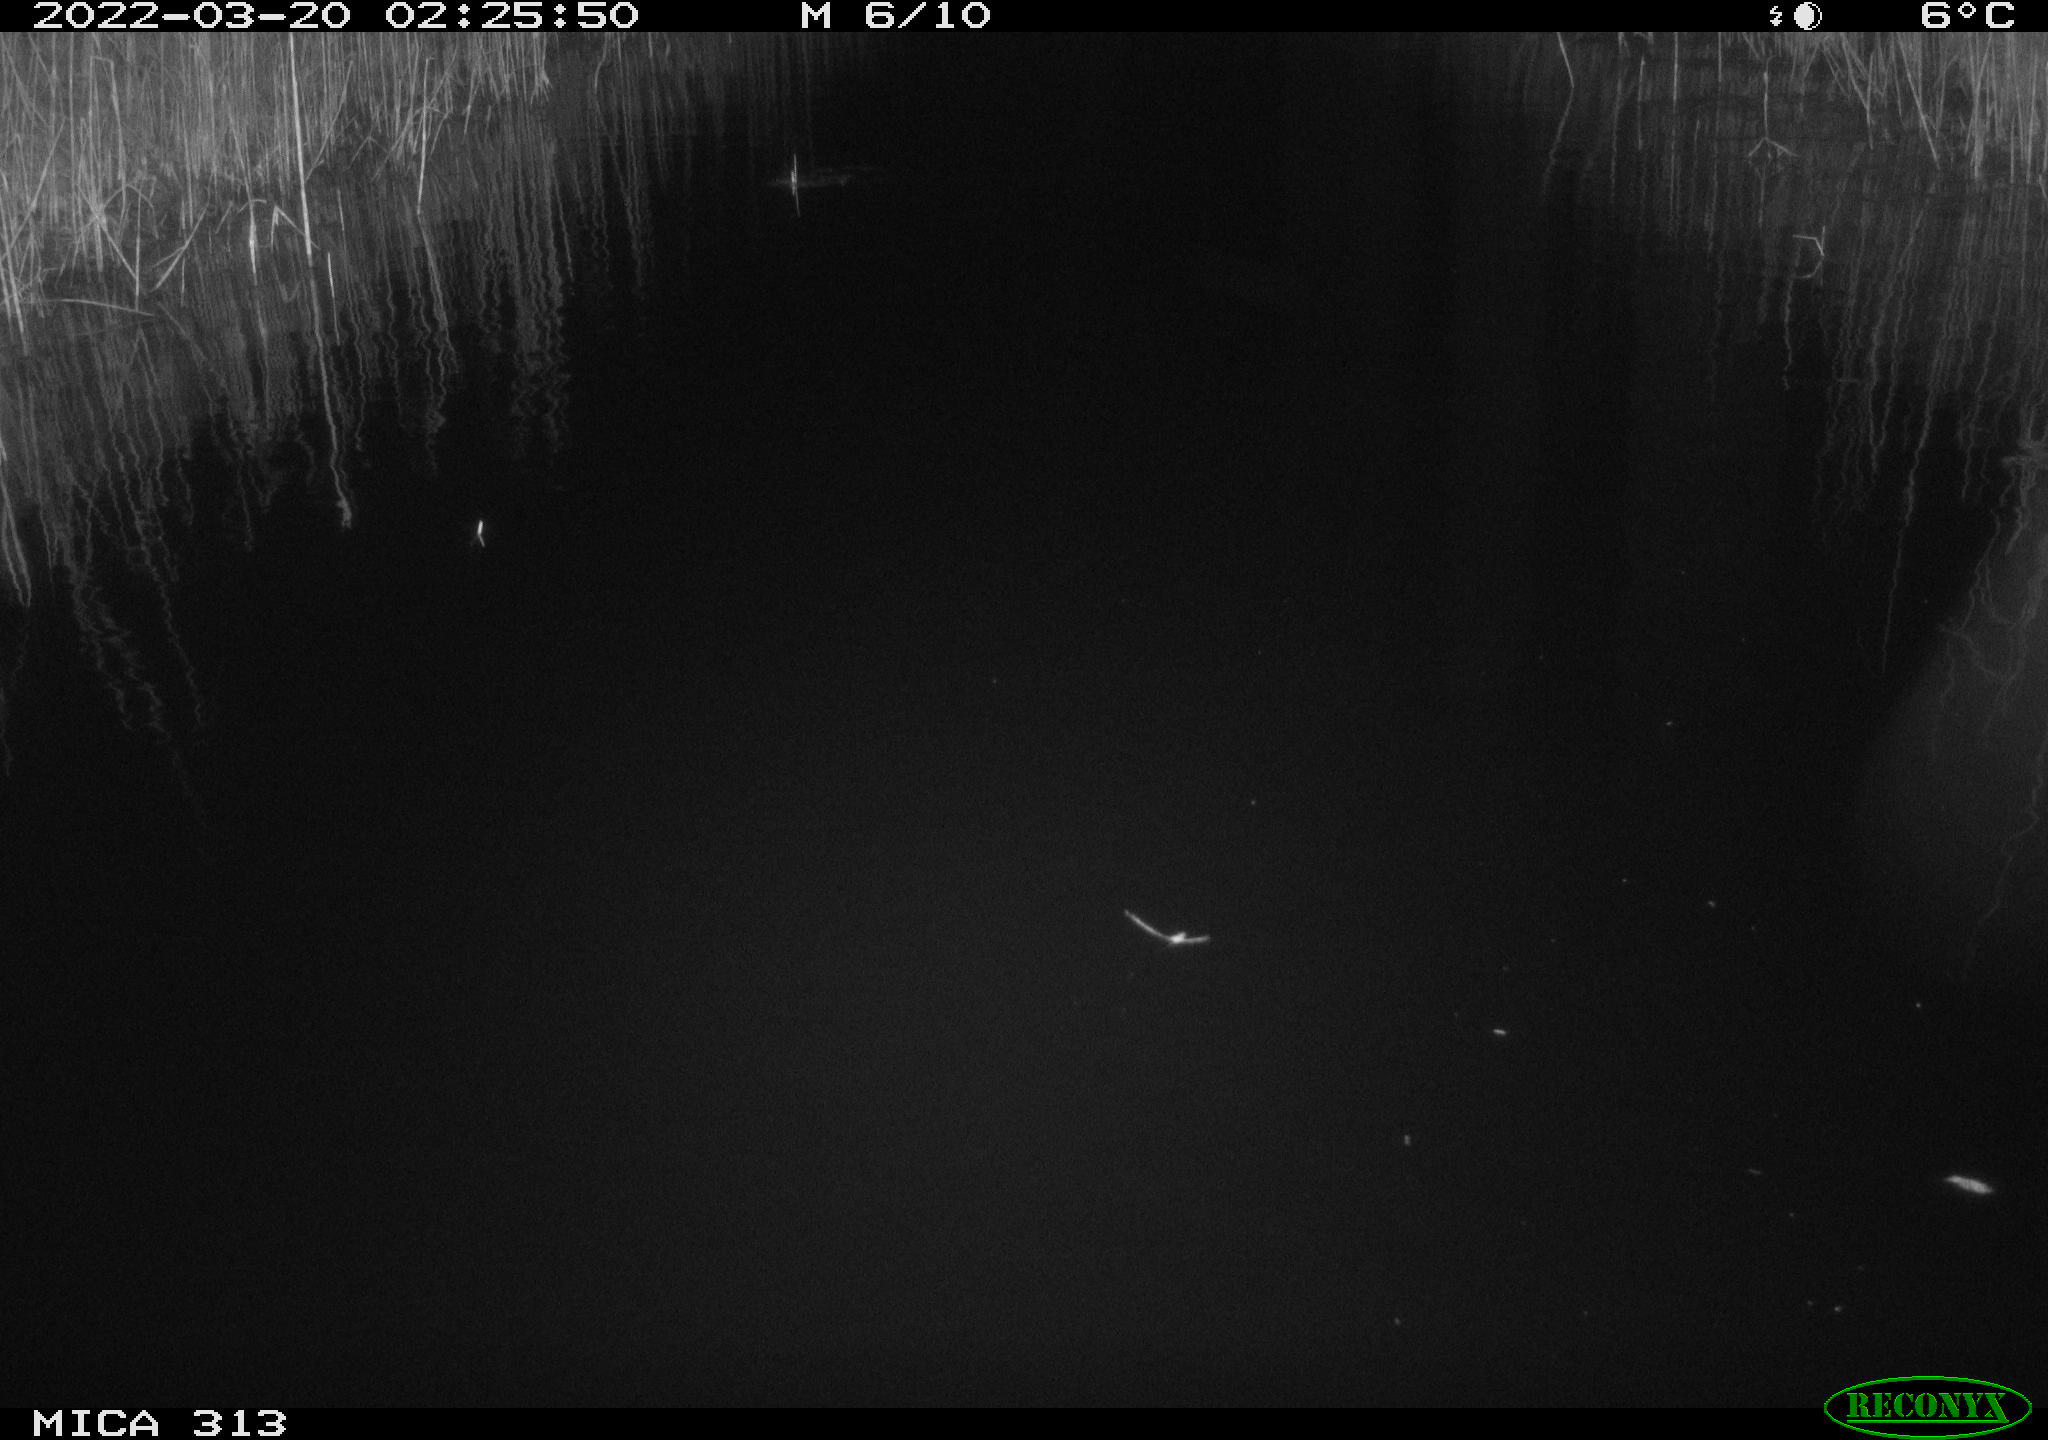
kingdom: Animalia
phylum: Chordata
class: Aves
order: Gruiformes
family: Rallidae
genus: Gallinula
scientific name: Gallinula chloropus
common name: Common moorhen
